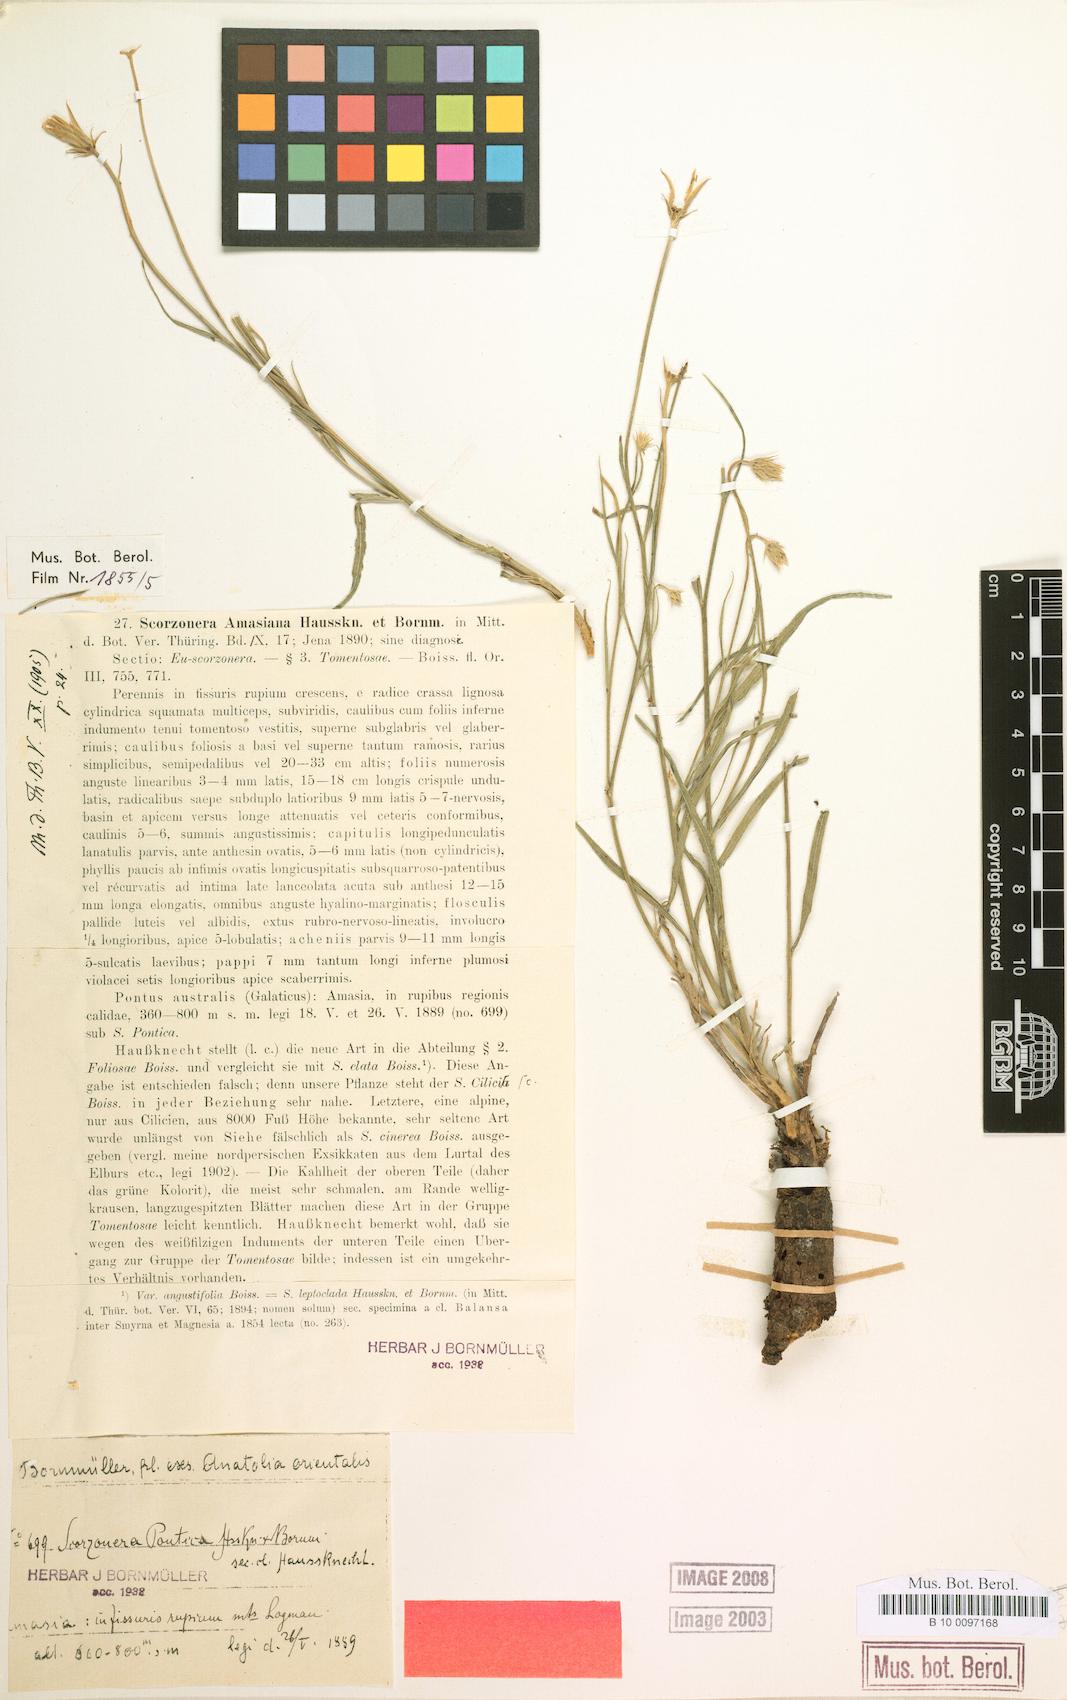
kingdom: Plantae
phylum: Tracheophyta
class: Magnoliopsida
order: Asterales
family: Asteraceae
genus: Ramaliella
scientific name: Ramaliella amasiana
